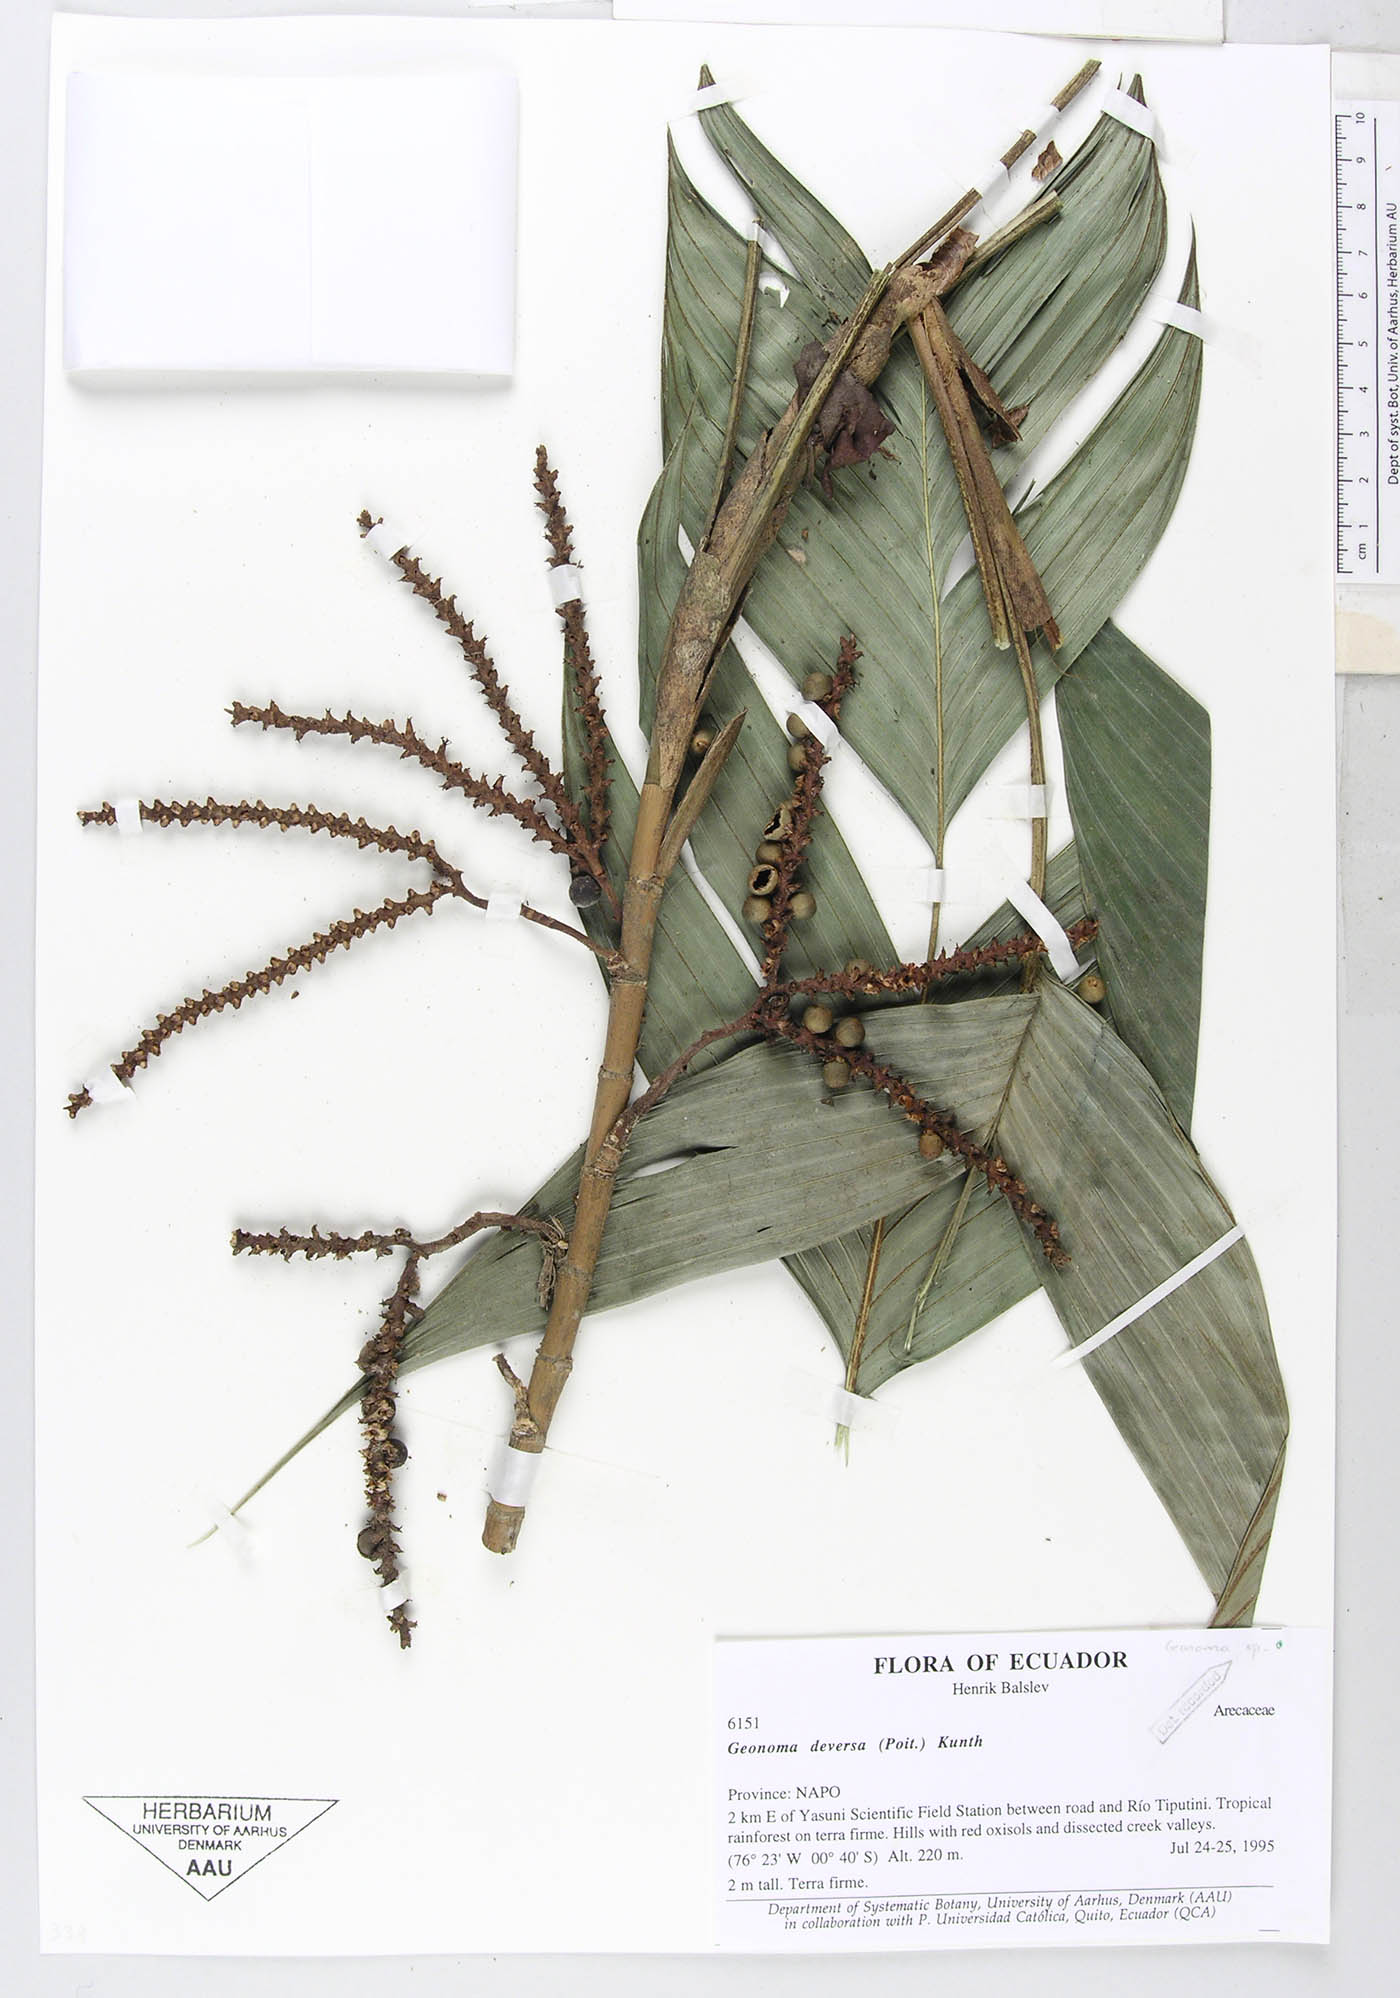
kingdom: Plantae
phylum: Tracheophyta
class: Liliopsida
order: Arecales
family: Arecaceae
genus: Geonoma
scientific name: Geonoma stricta
